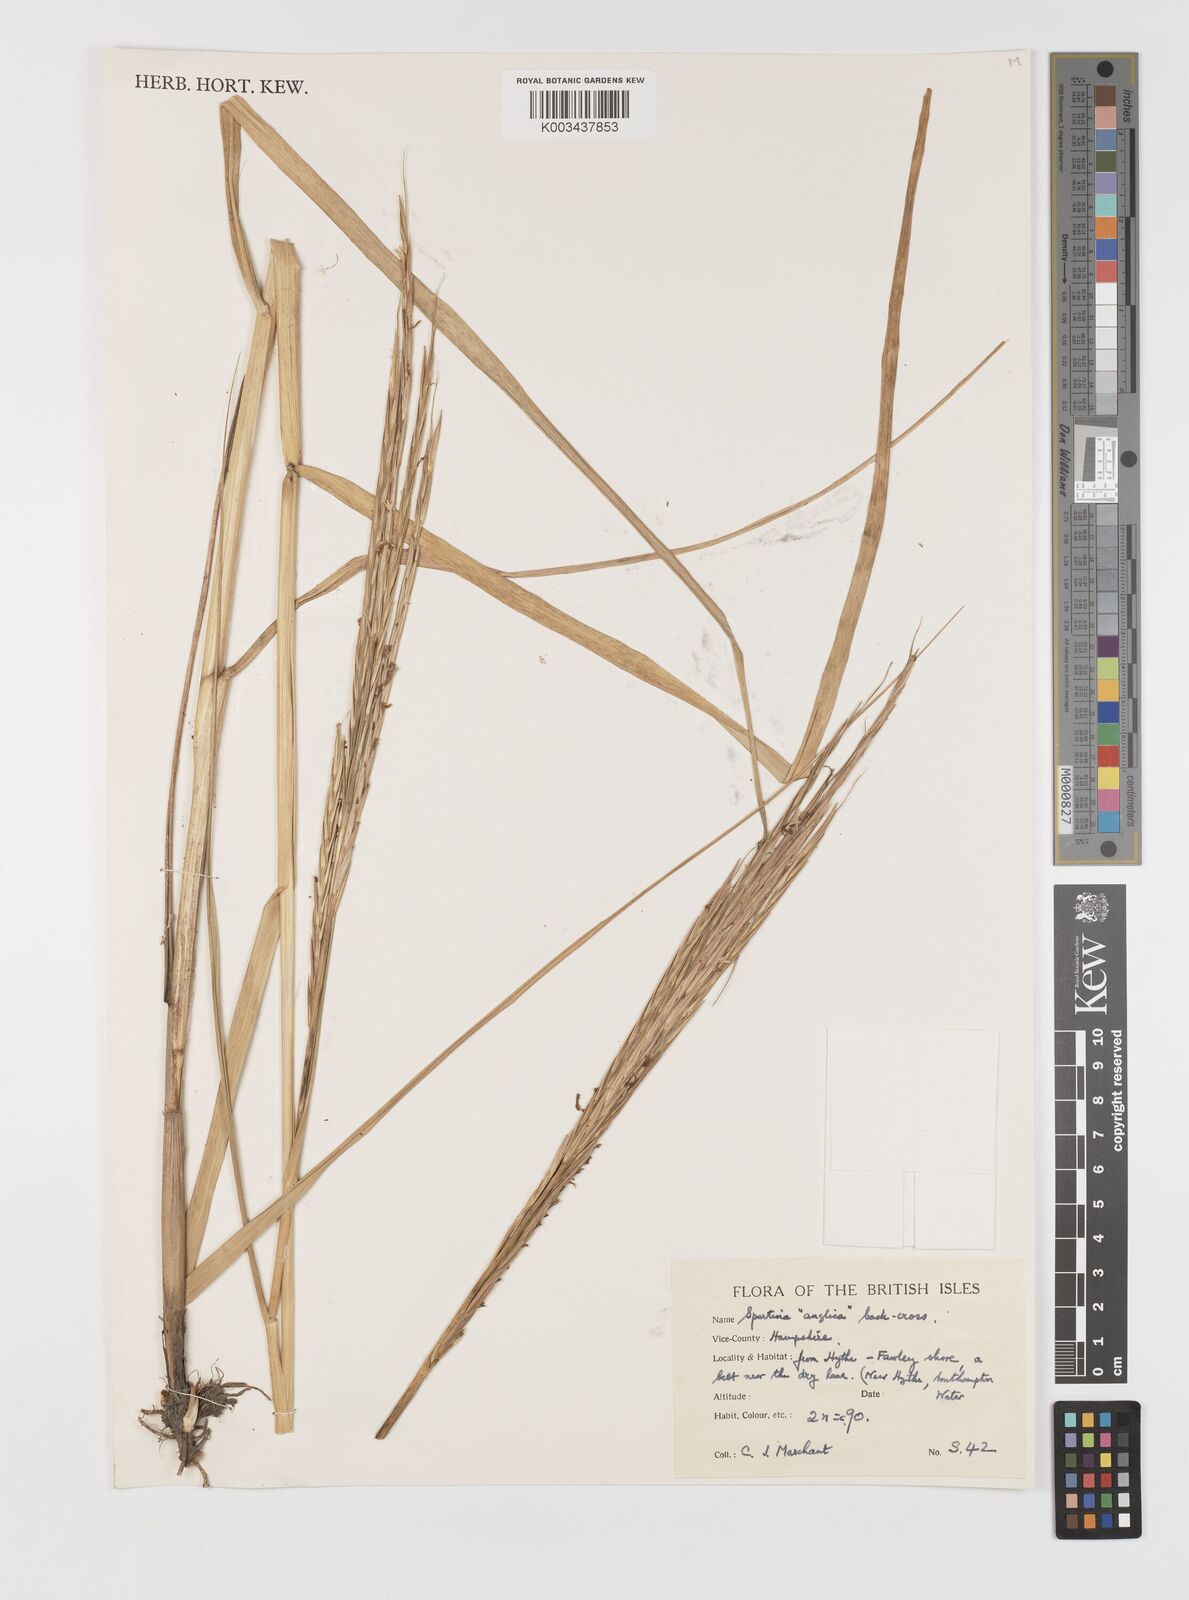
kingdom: Animalia
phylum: Mollusca
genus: Spartina
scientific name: Spartina
